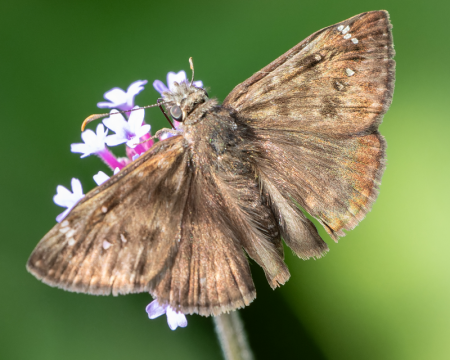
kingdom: Animalia
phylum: Arthropoda
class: Insecta
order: Lepidoptera
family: Hesperiidae
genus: Gesta
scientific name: Gesta
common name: Horace's Duskywing
